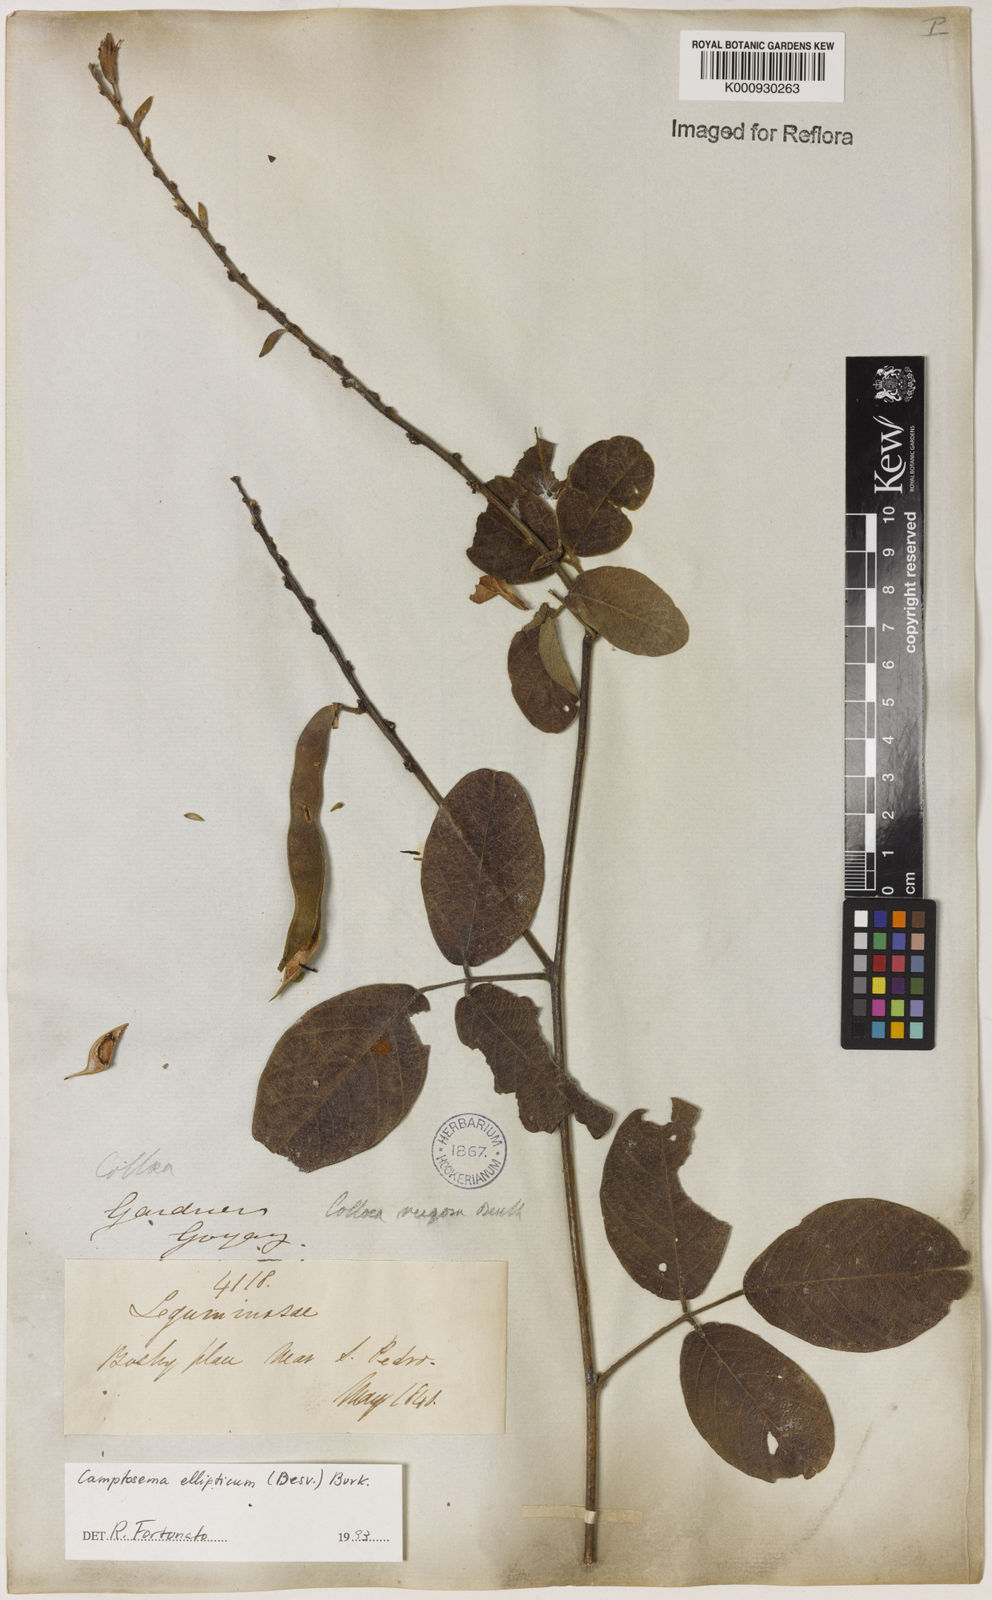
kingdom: Plantae
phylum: Tracheophyta
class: Magnoliopsida
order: Fabales
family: Fabaceae
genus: Camptosema
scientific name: Camptosema
